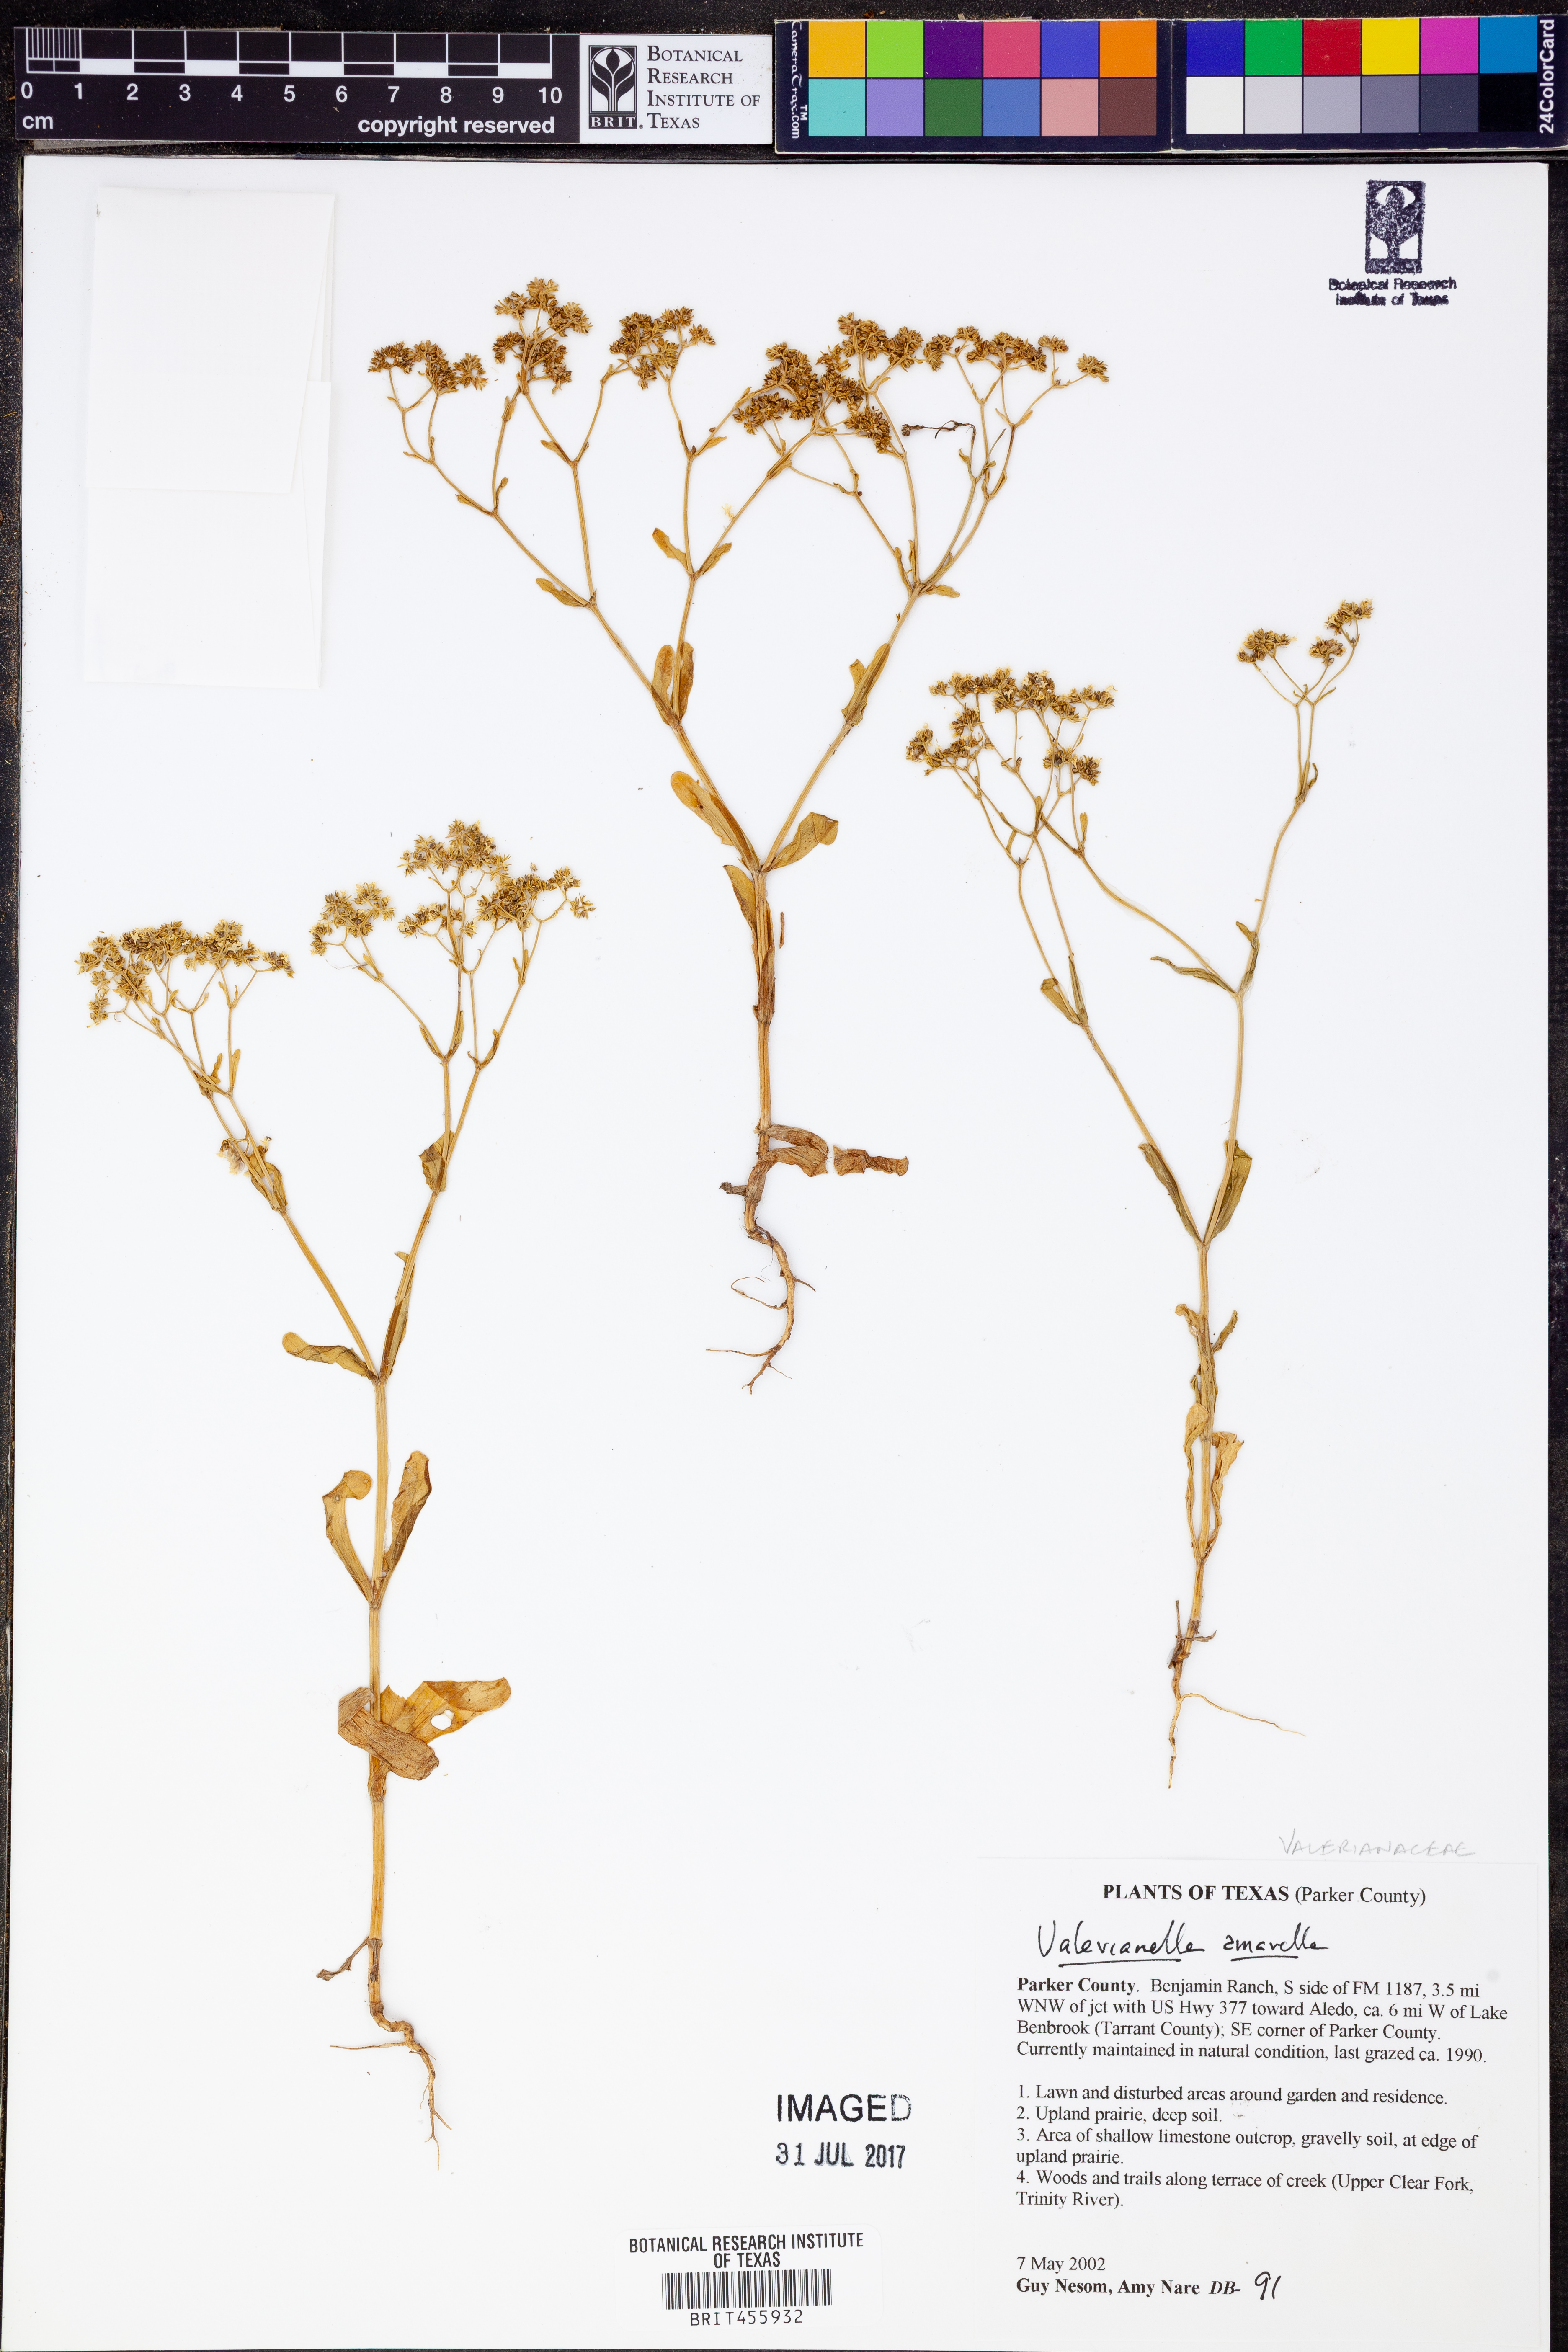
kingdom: Plantae
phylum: Tracheophyta
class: Magnoliopsida
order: Dipsacales
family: Caprifoliaceae
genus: Valerianella
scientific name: Valerianella amarella
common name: Hariy cornsalad
